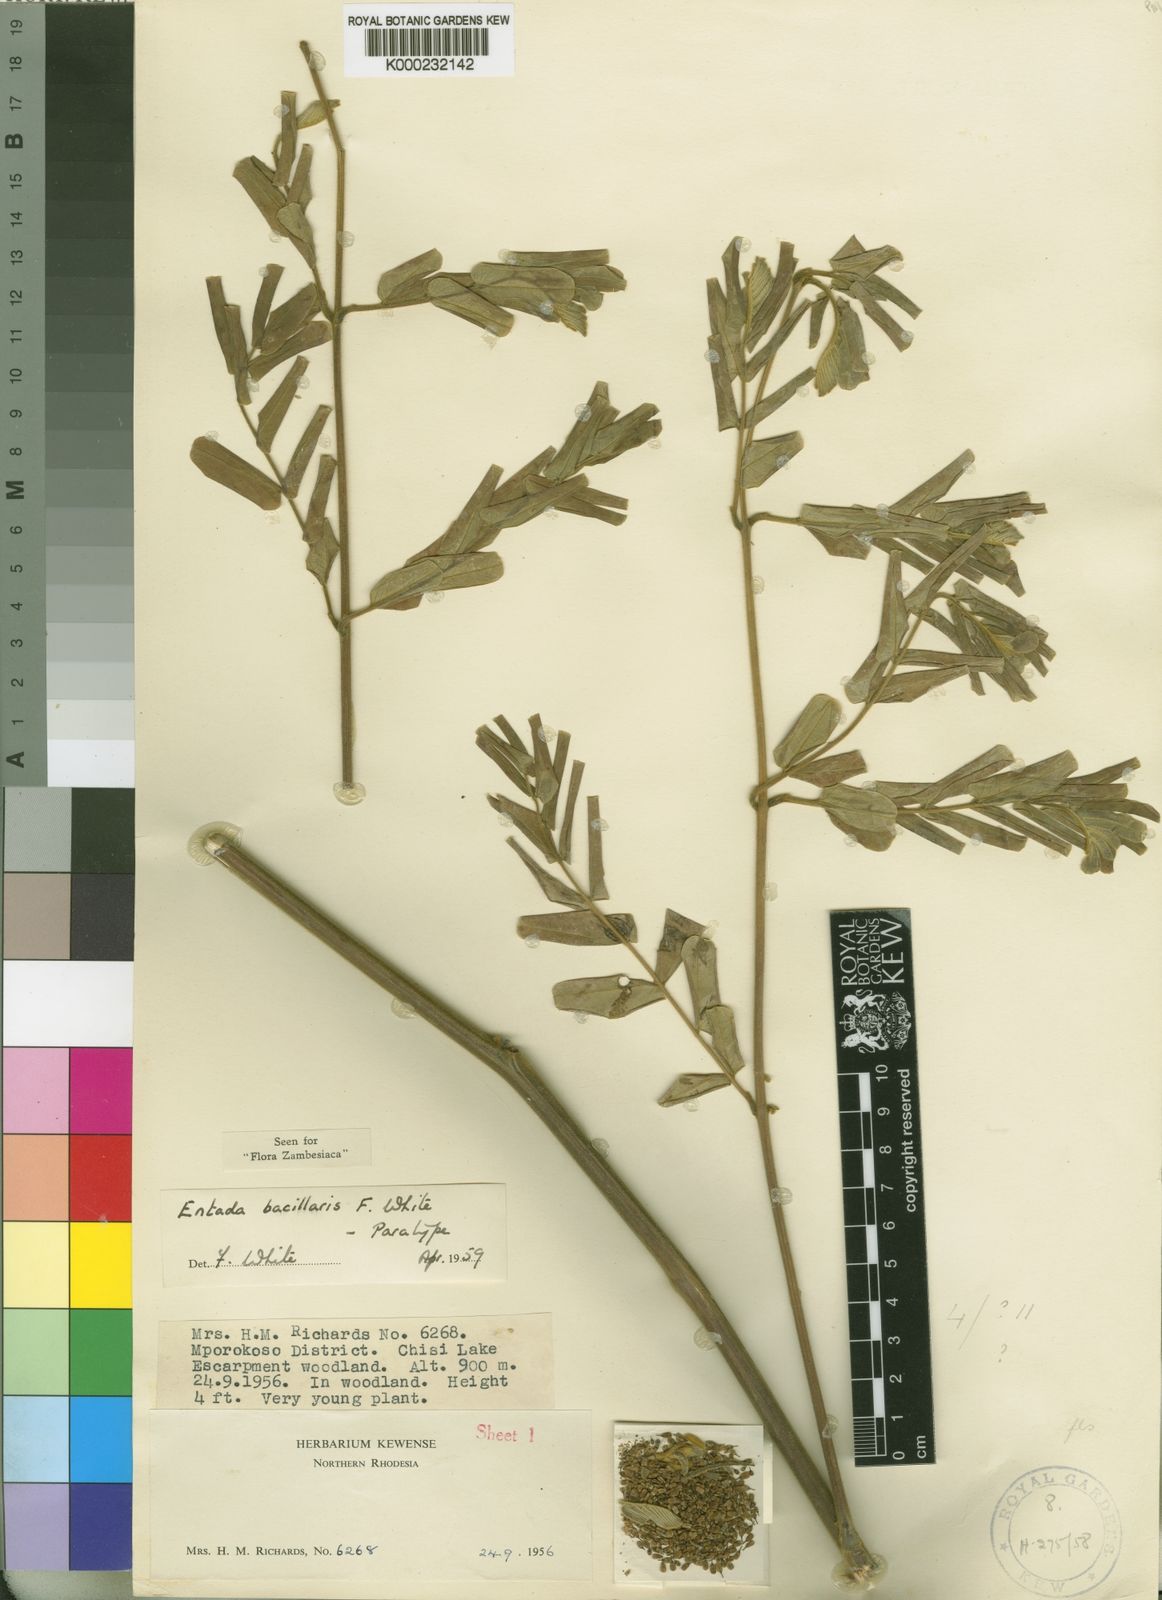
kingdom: Plantae
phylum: Tracheophyta
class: Magnoliopsida
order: Fabales
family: Fabaceae
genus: Entada
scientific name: Entada bacillaris
